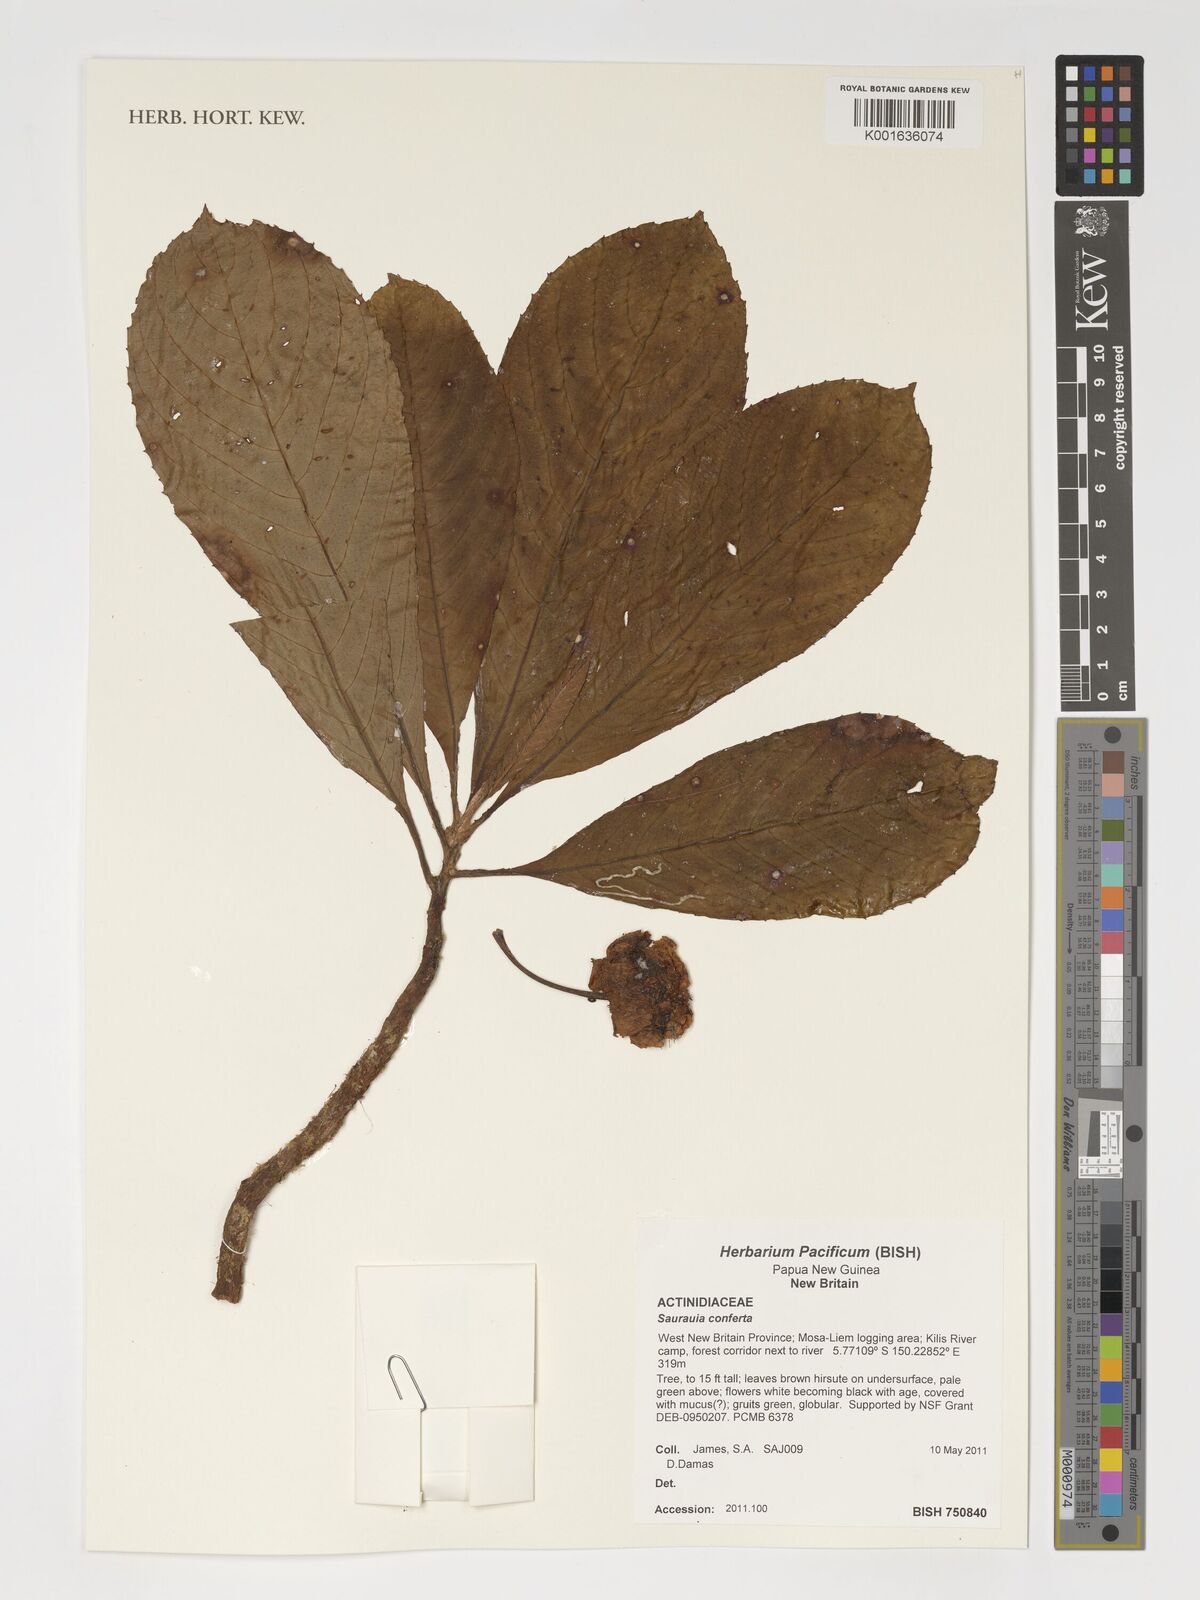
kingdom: Plantae
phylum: Tracheophyta
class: Magnoliopsida
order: Ericales
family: Actinidiaceae
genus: Saurauia
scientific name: Saurauia conferta
